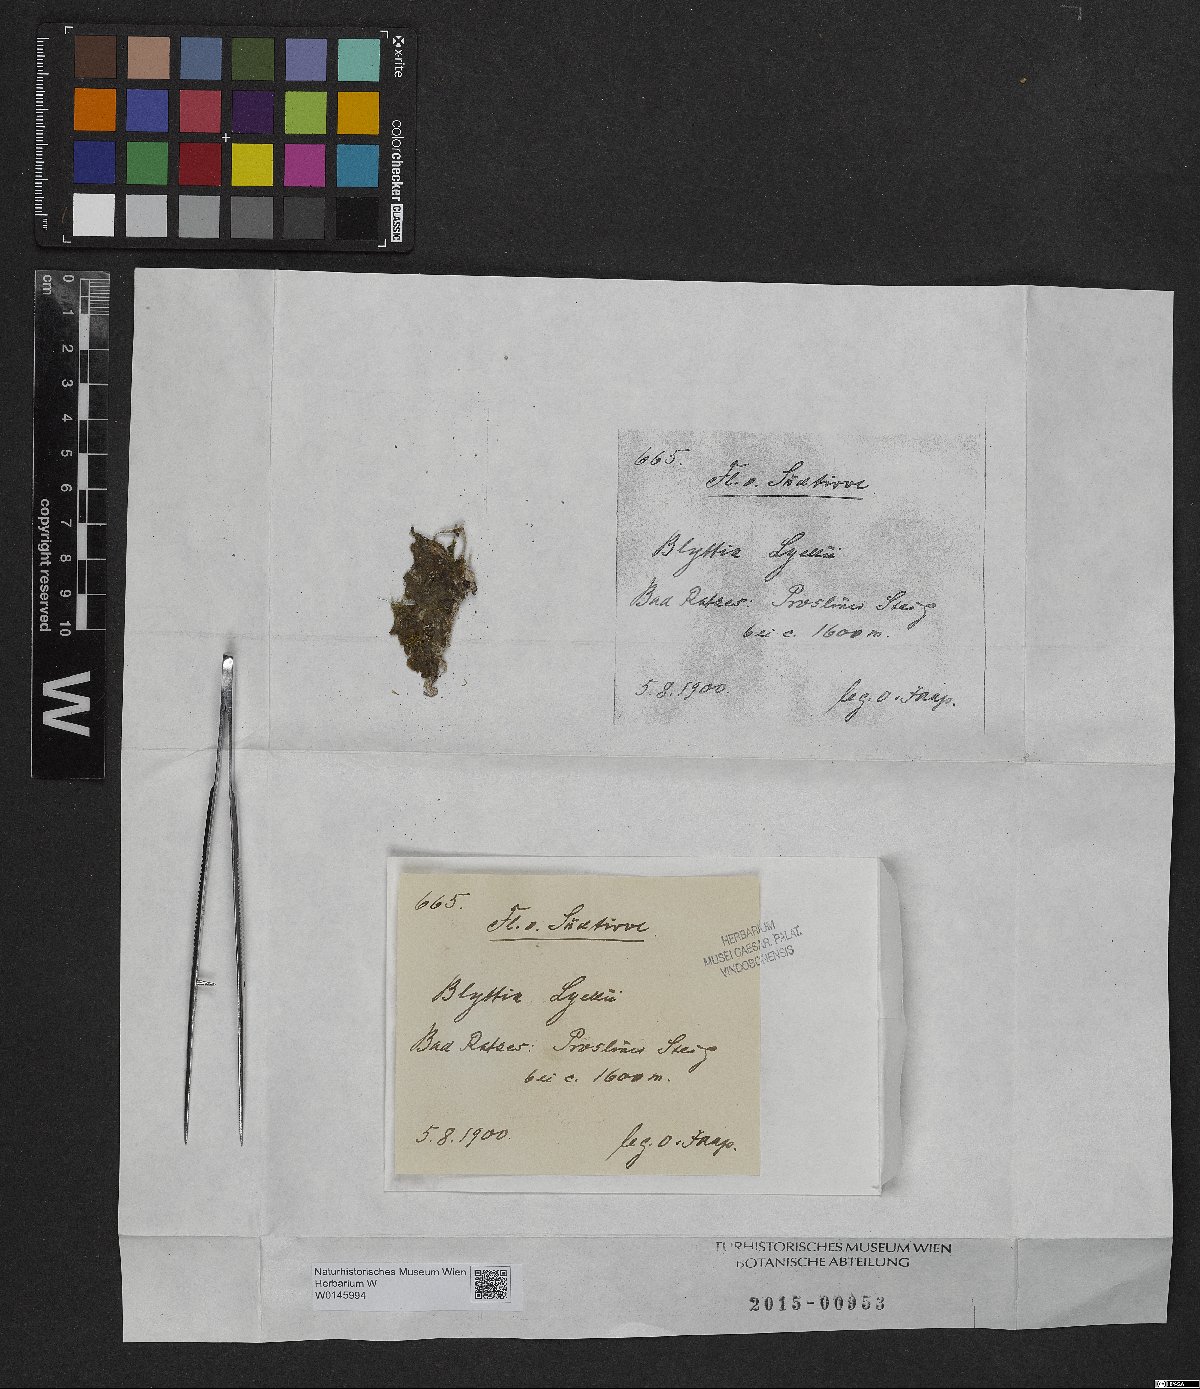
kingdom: Plantae
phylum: Marchantiophyta
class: Jungermanniopsida
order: Pallaviciniales
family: Pallaviciniaceae
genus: Pallavicinia
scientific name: Pallavicinia lyellii
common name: Veilwort
